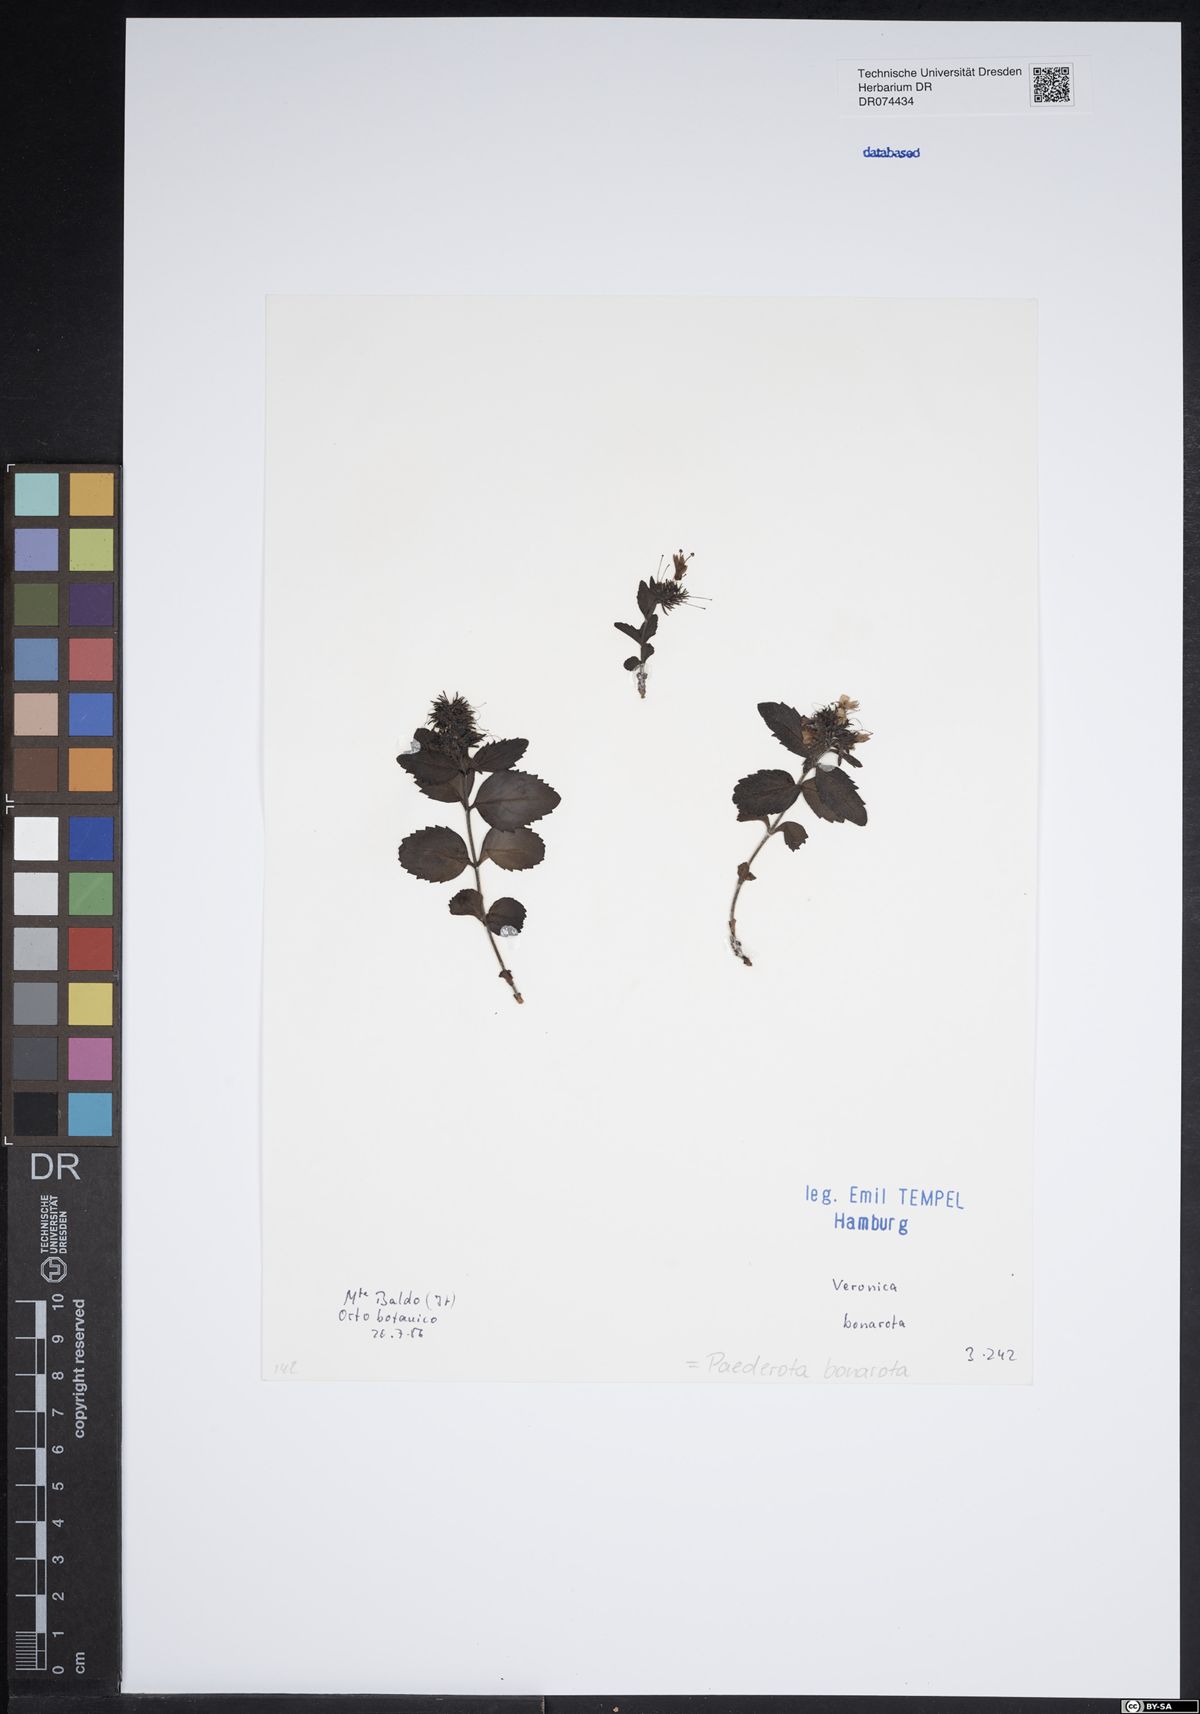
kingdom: Plantae
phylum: Tracheophyta
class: Magnoliopsida
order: Lamiales
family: Plantaginaceae
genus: Paederota
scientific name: Paederota bonarota
